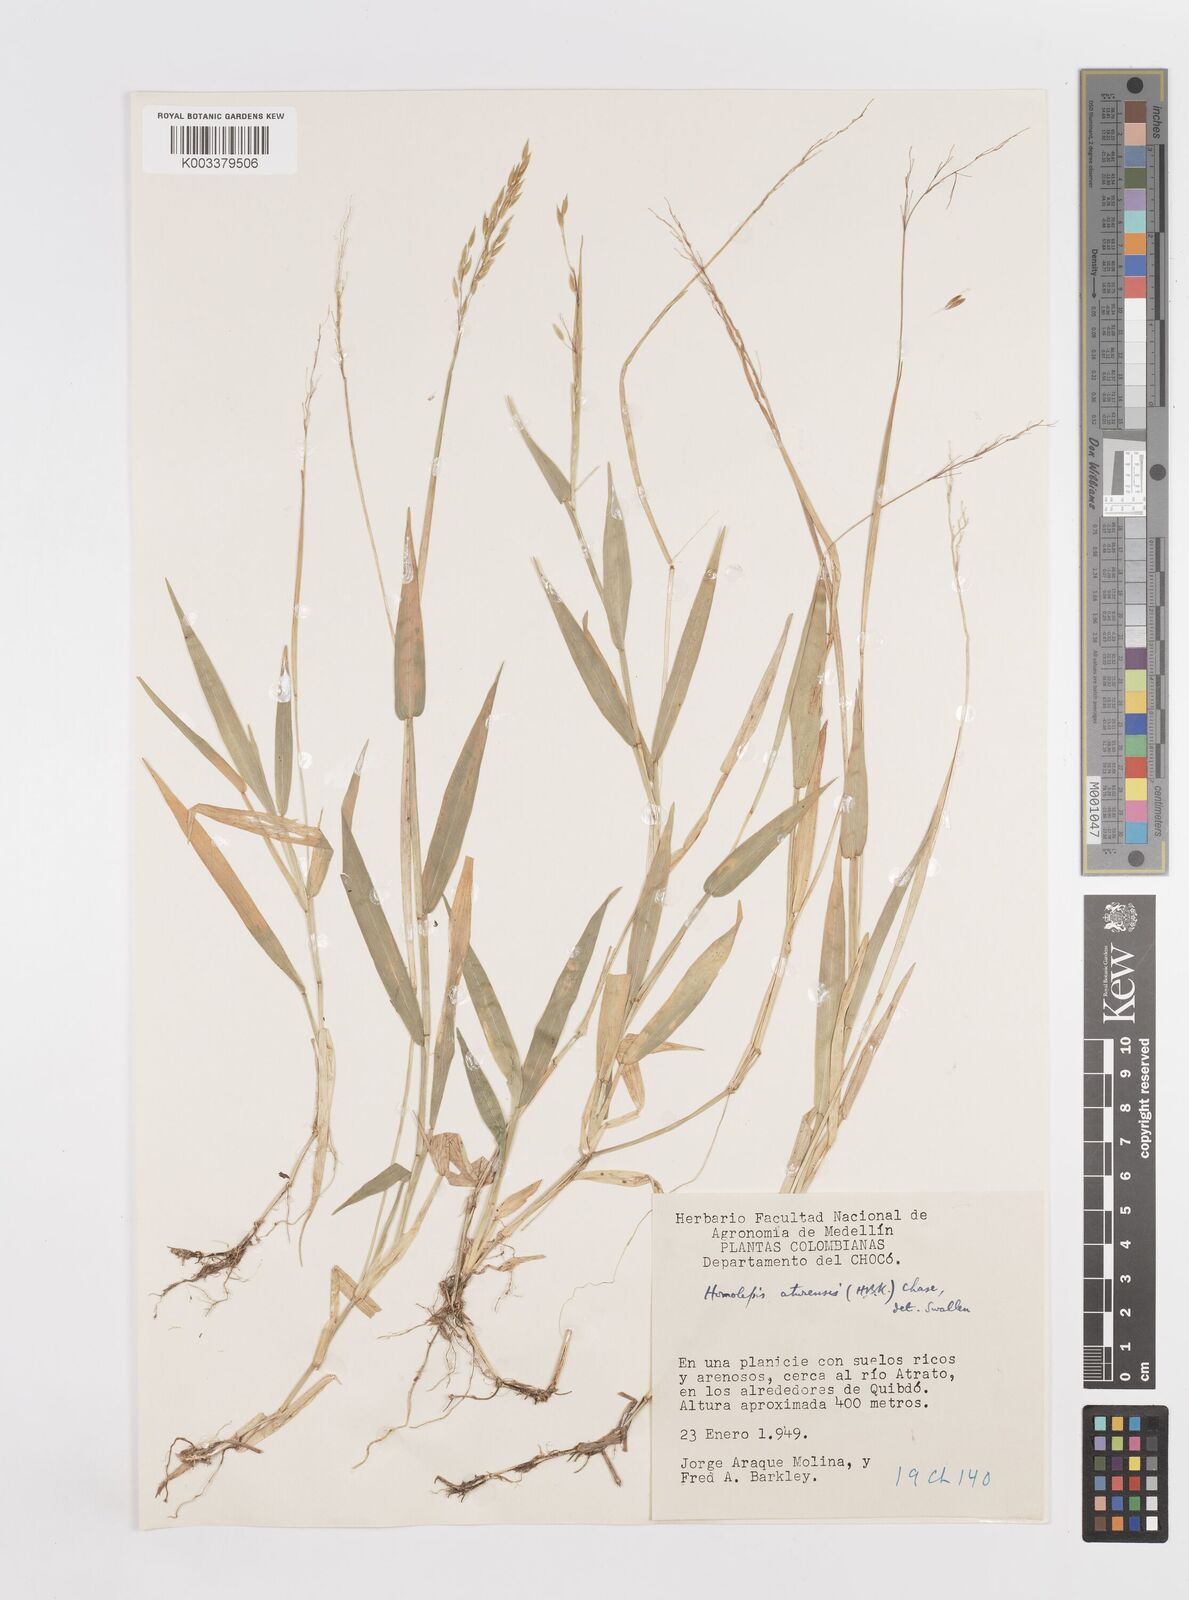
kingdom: Plantae
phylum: Tracheophyta
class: Liliopsida
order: Poales
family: Poaceae
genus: Homolepis
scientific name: Homolepis aturensis
